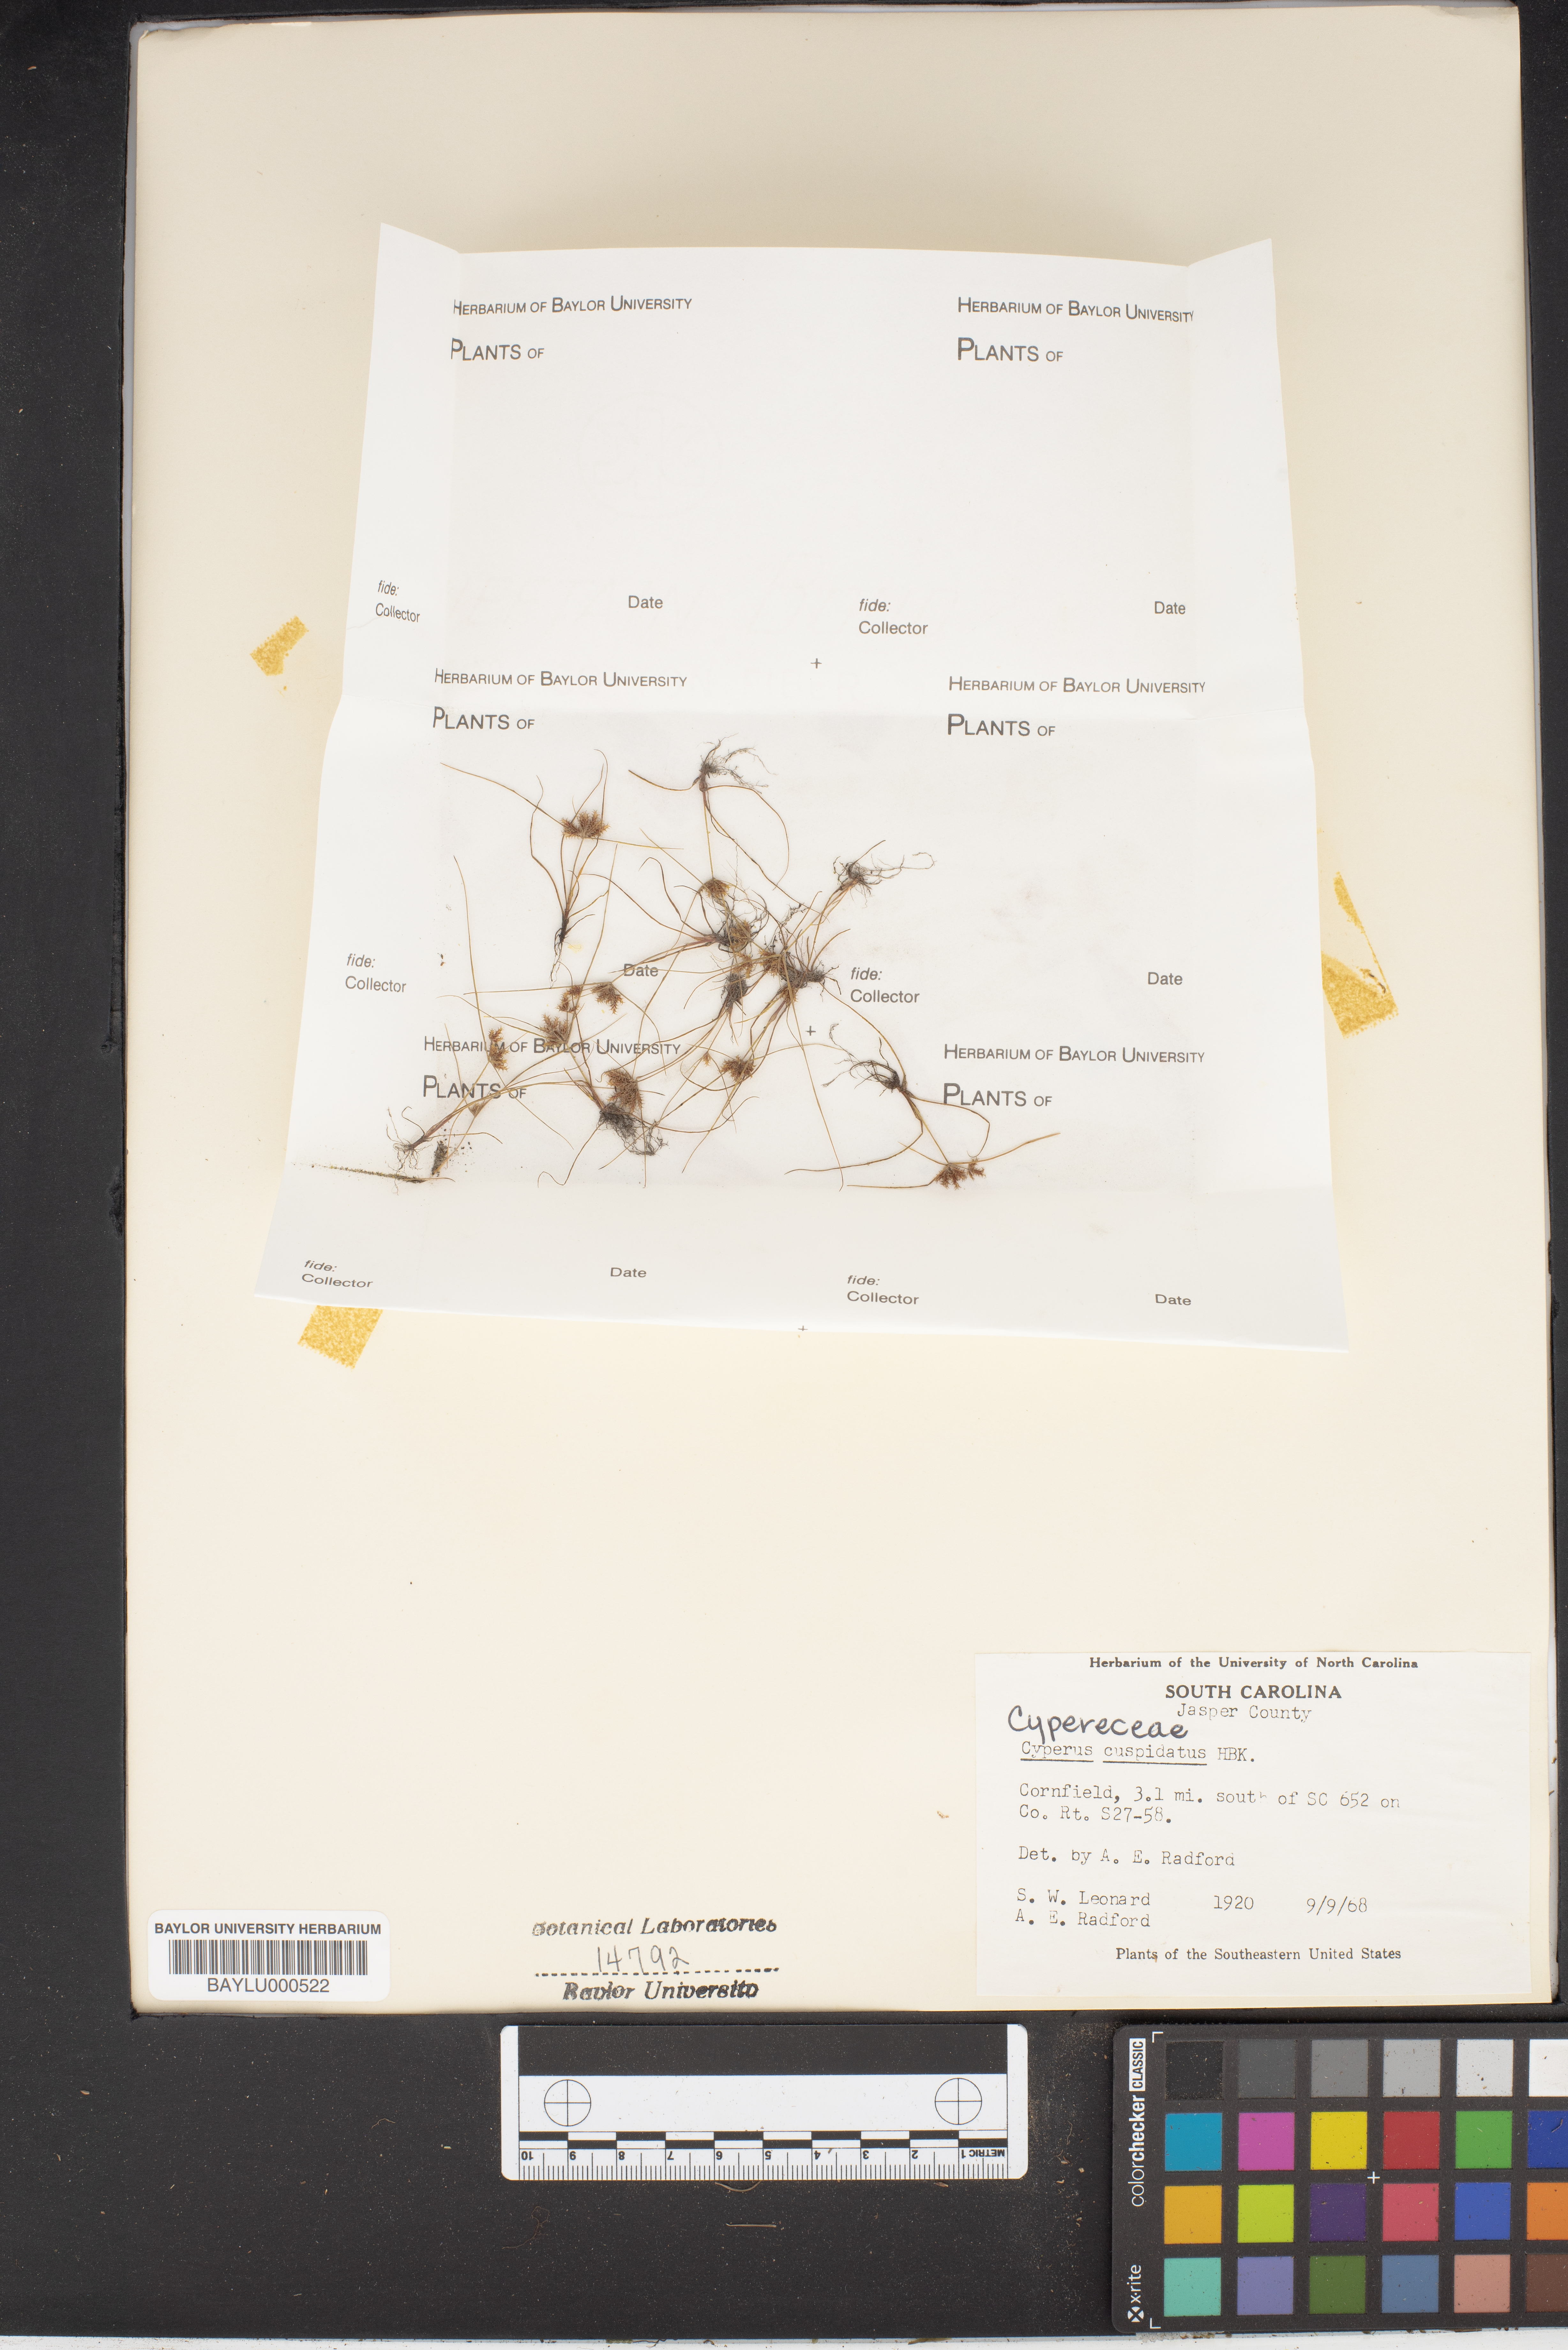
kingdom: Plantae
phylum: Tracheophyta
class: Liliopsida
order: Poales
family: Cyperaceae
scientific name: Cyperaceae
